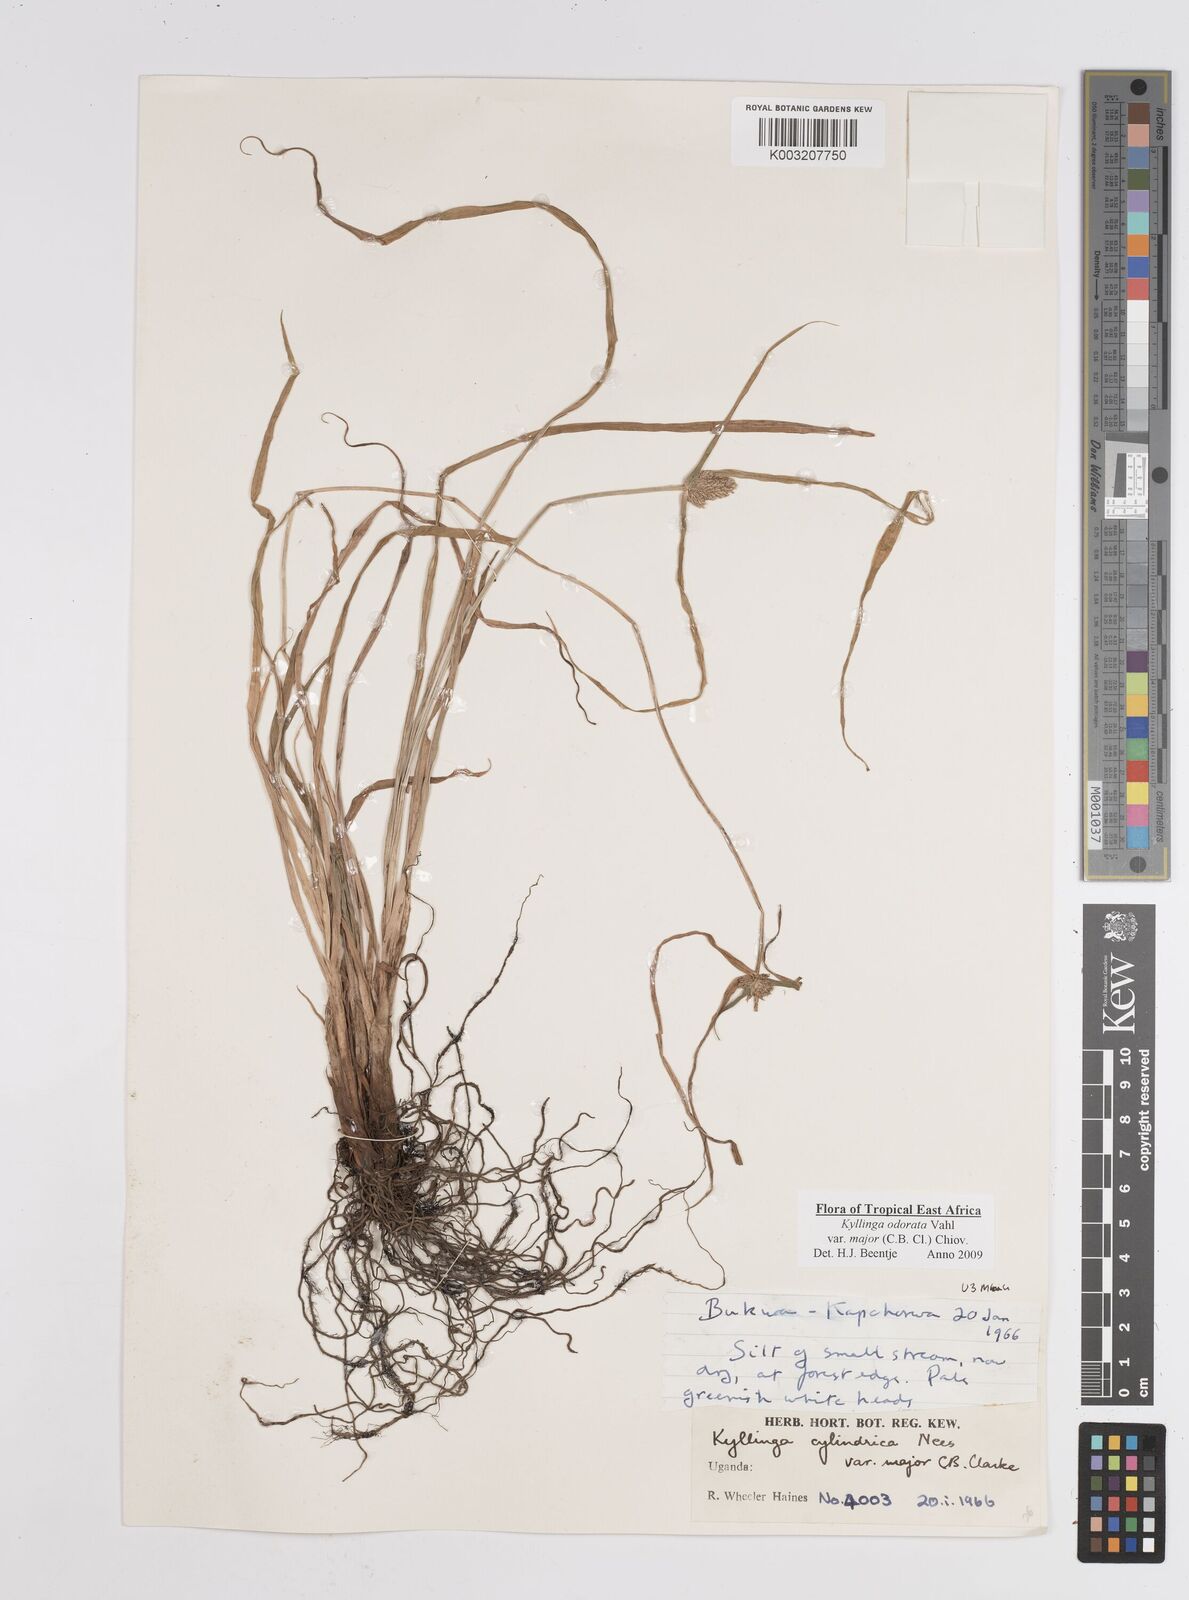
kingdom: Plantae
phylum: Tracheophyta
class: Liliopsida
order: Poales
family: Cyperaceae
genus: Cyperus
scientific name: Cyperus
